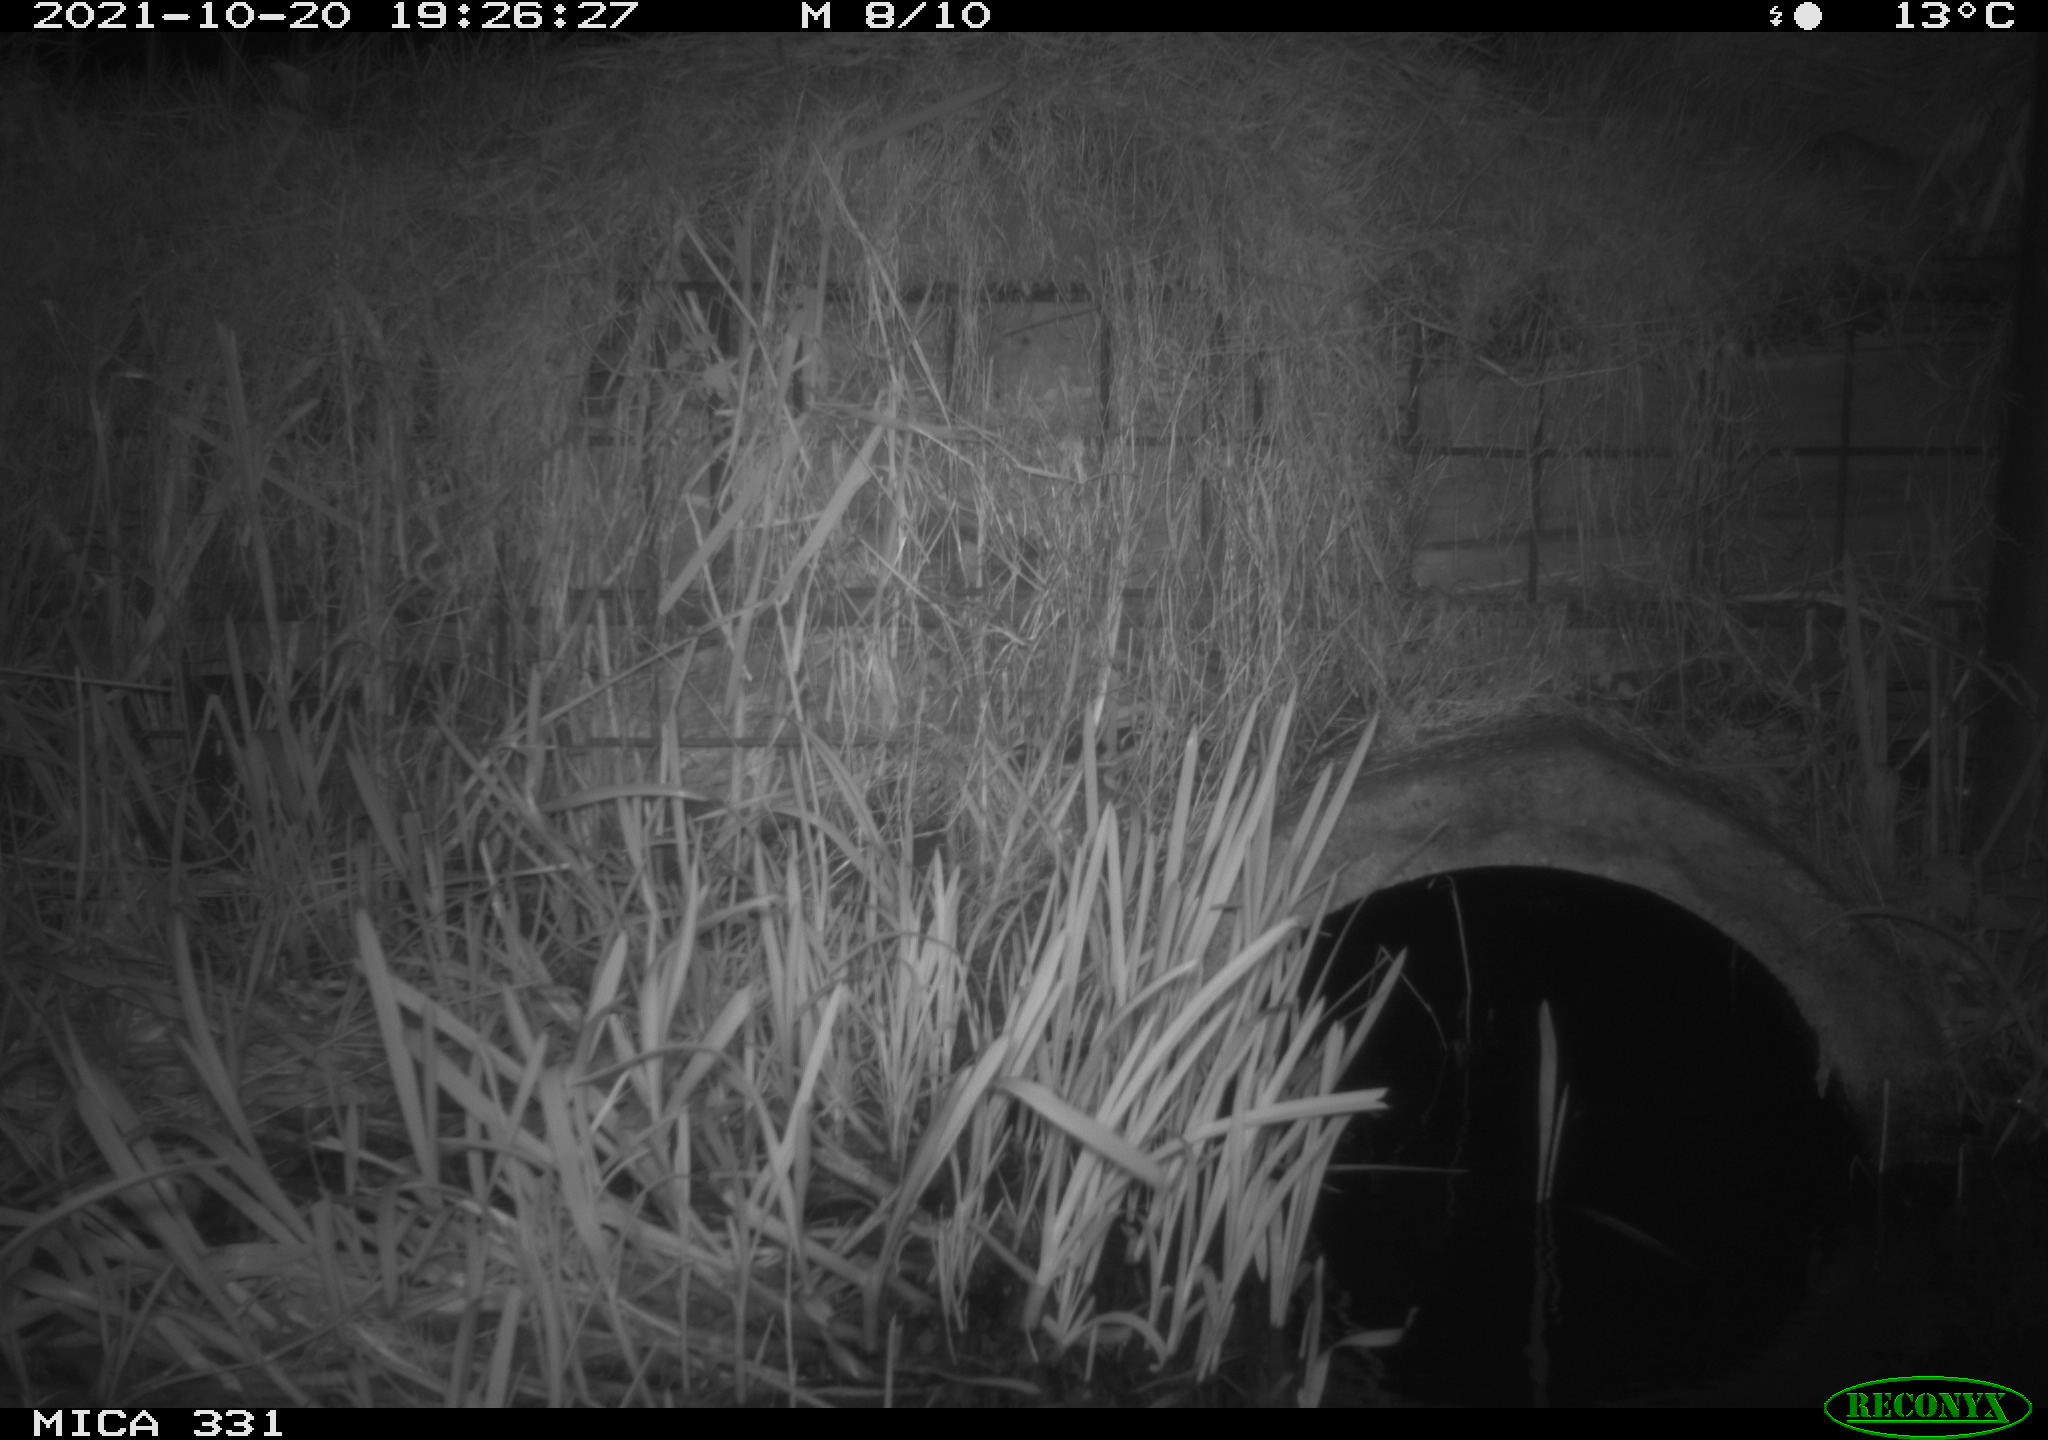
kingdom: Animalia
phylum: Chordata
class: Mammalia
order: Rodentia
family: Muridae
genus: Rattus
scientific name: Rattus norvegicus
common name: Brown rat
